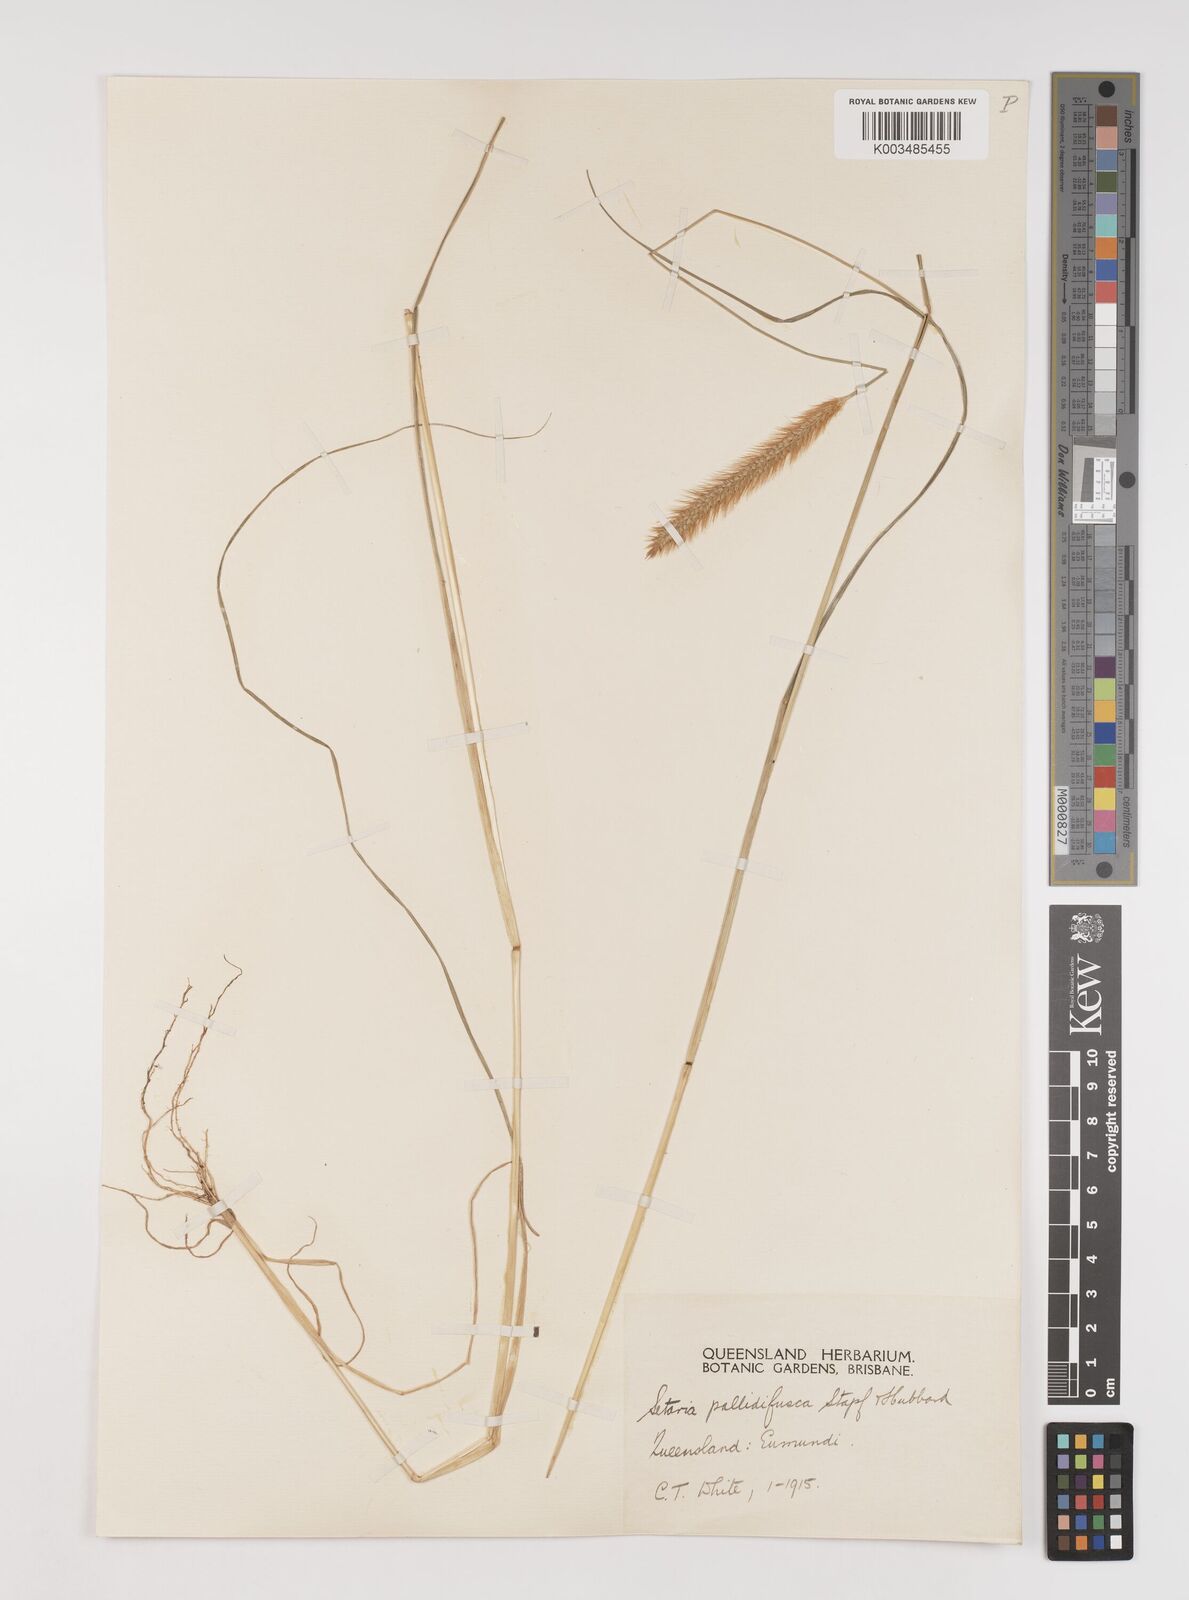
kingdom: Plantae
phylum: Tracheophyta
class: Liliopsida
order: Poales
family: Poaceae
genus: Setaria
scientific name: Setaria pumila
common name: Yellow bristle-grass
